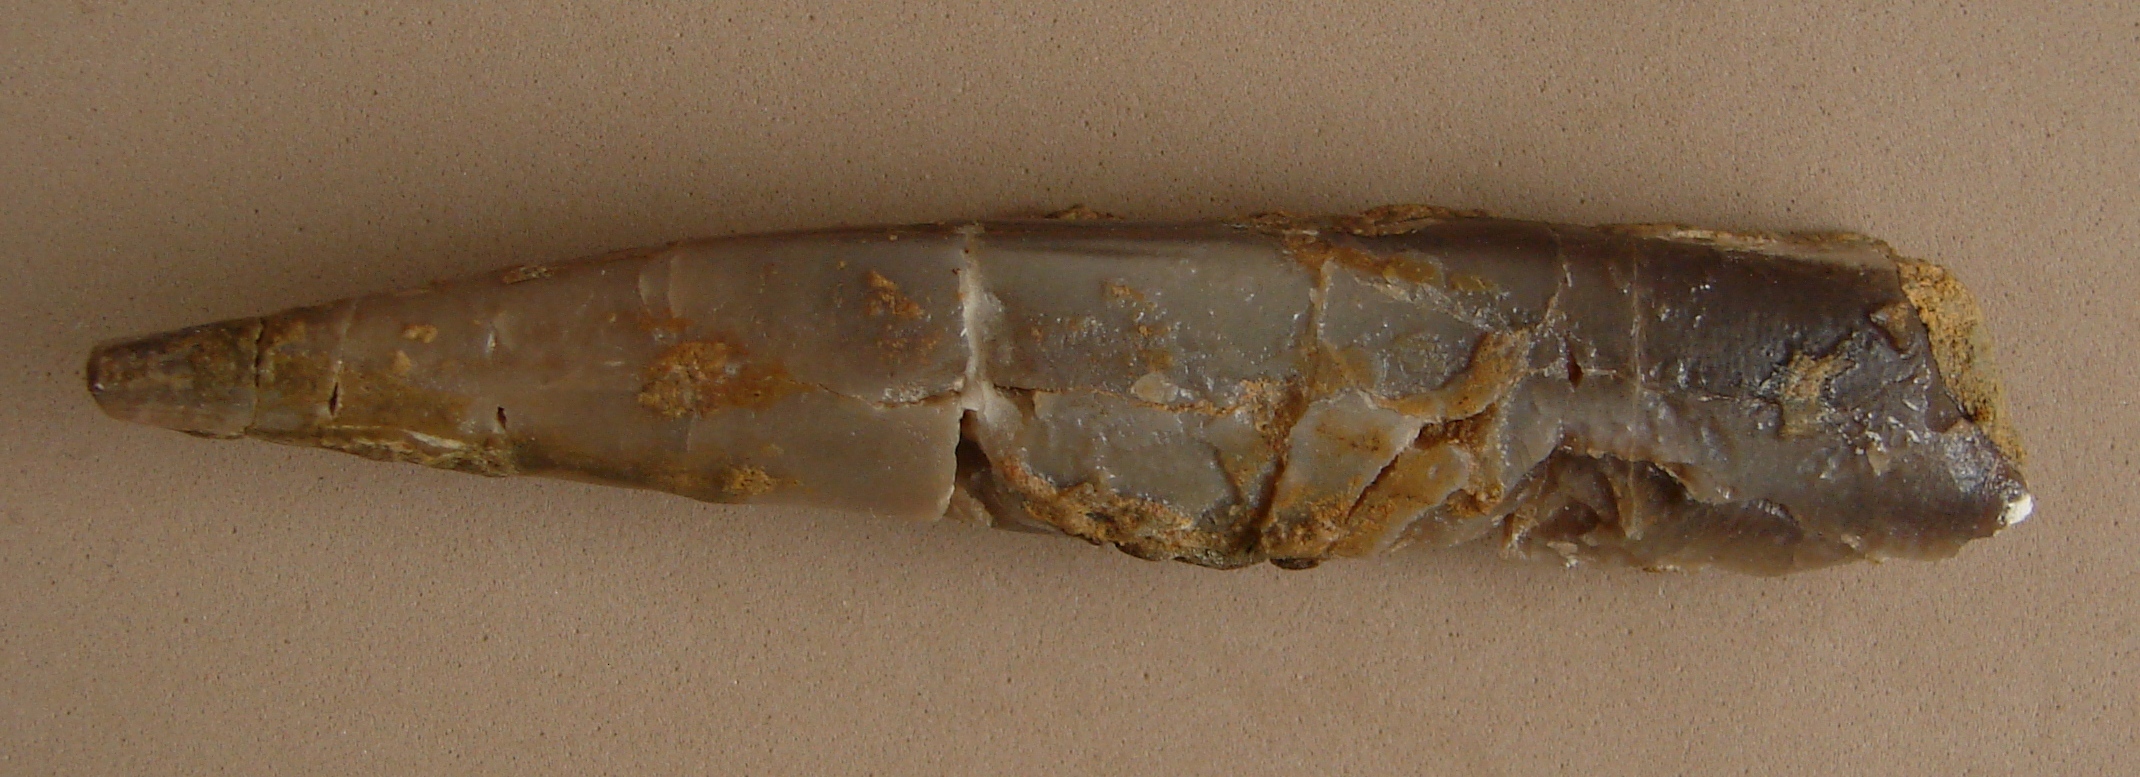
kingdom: Animalia
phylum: Mollusca
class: Cephalopoda
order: Belemnitida
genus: Eocylindroteuthis
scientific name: Eocylindroteuthis
